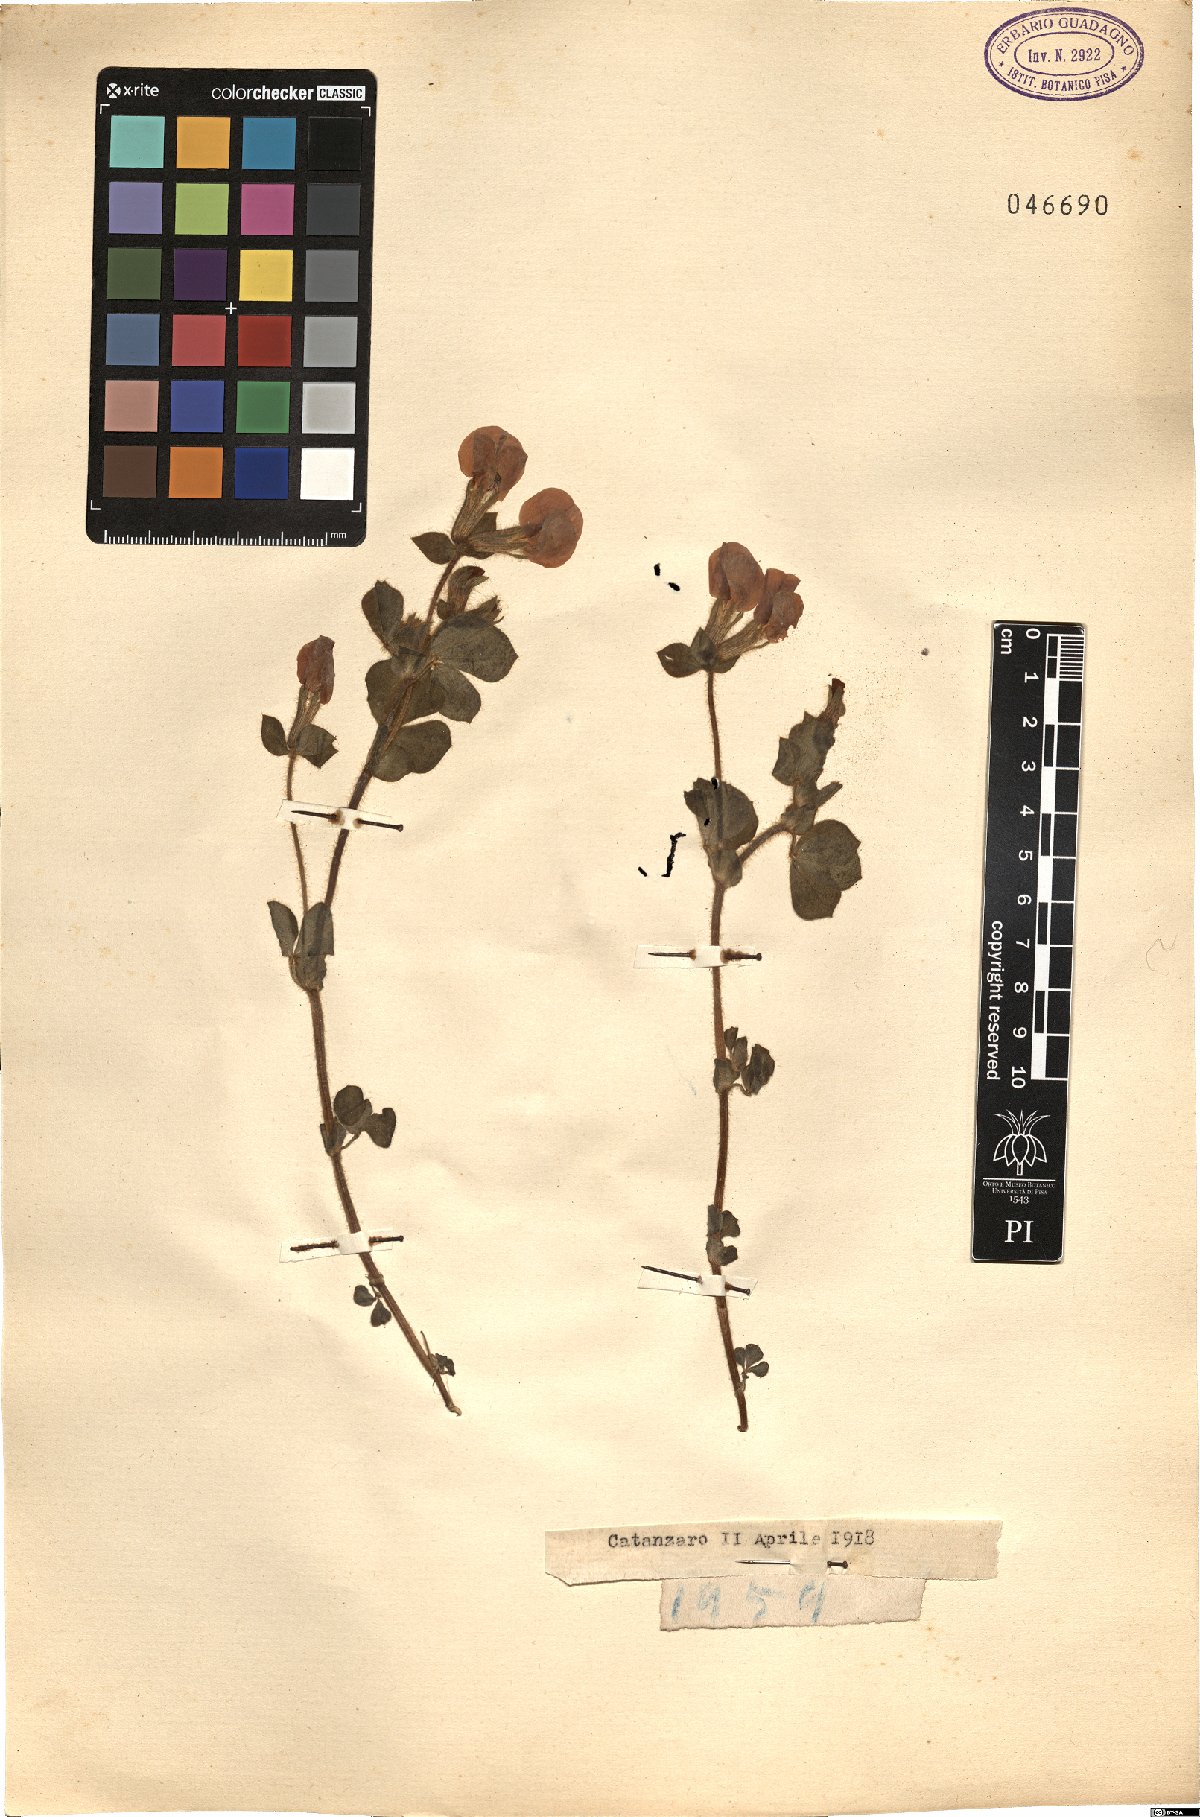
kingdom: Plantae
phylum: Tracheophyta
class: Magnoliopsida
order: Fabales
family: Fabaceae
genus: Lotus
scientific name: Lotus
